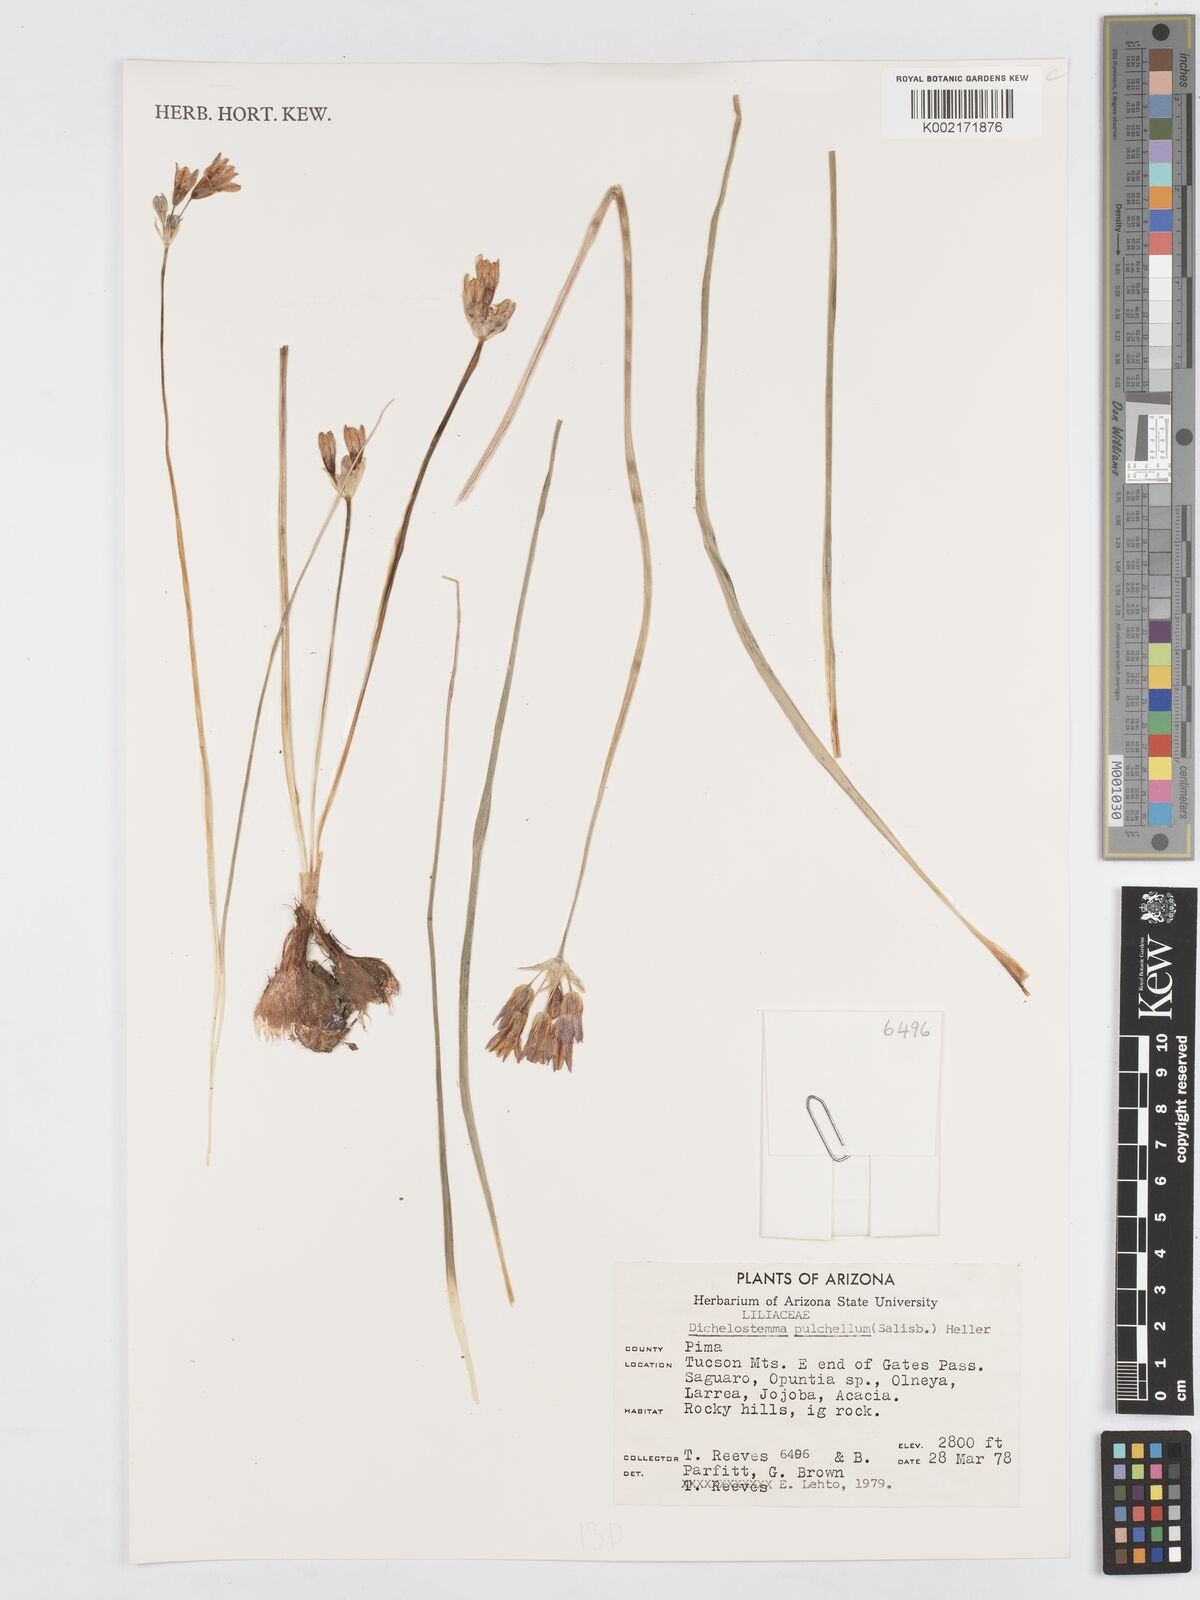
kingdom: Plantae
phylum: Tracheophyta
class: Liliopsida
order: Asparagales
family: Asparagaceae
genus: Dichelostemma
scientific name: Dichelostemma congestum
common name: Fork-tooth ookow
